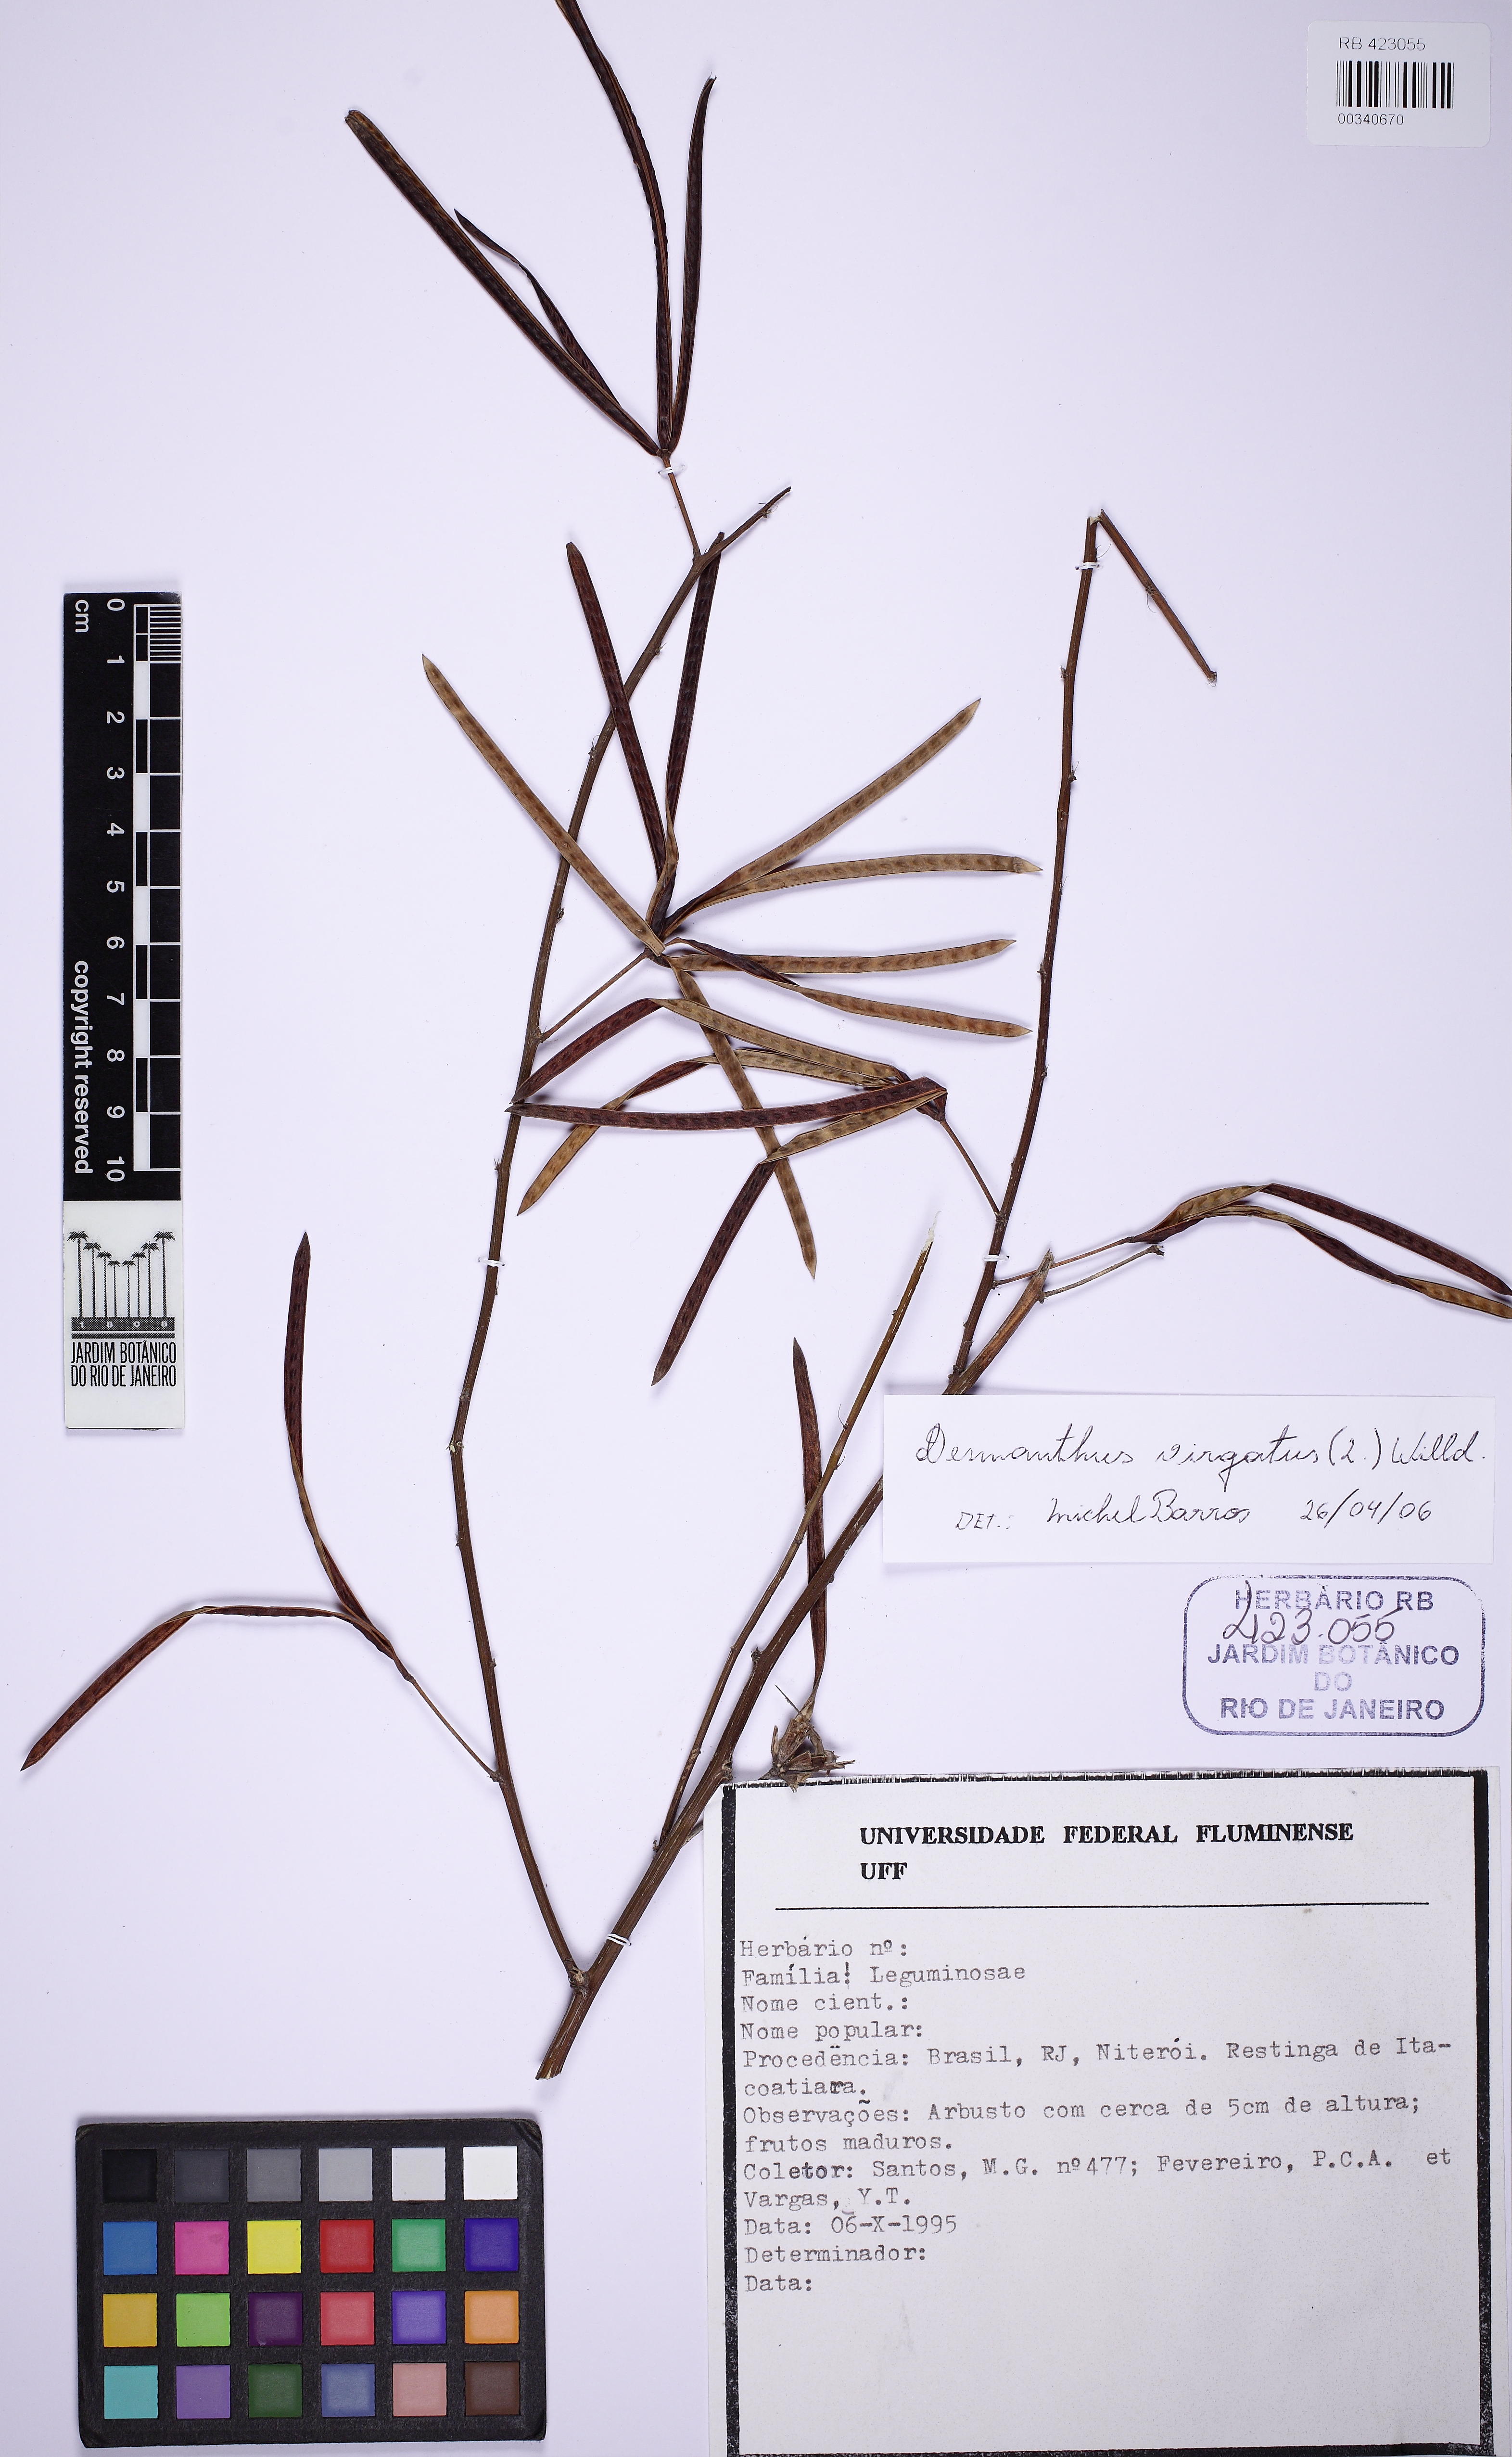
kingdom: Plantae
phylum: Tracheophyta
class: Magnoliopsida
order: Fabales
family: Fabaceae
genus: Desmanthus
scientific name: Desmanthus virgatus
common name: Wild tantan
